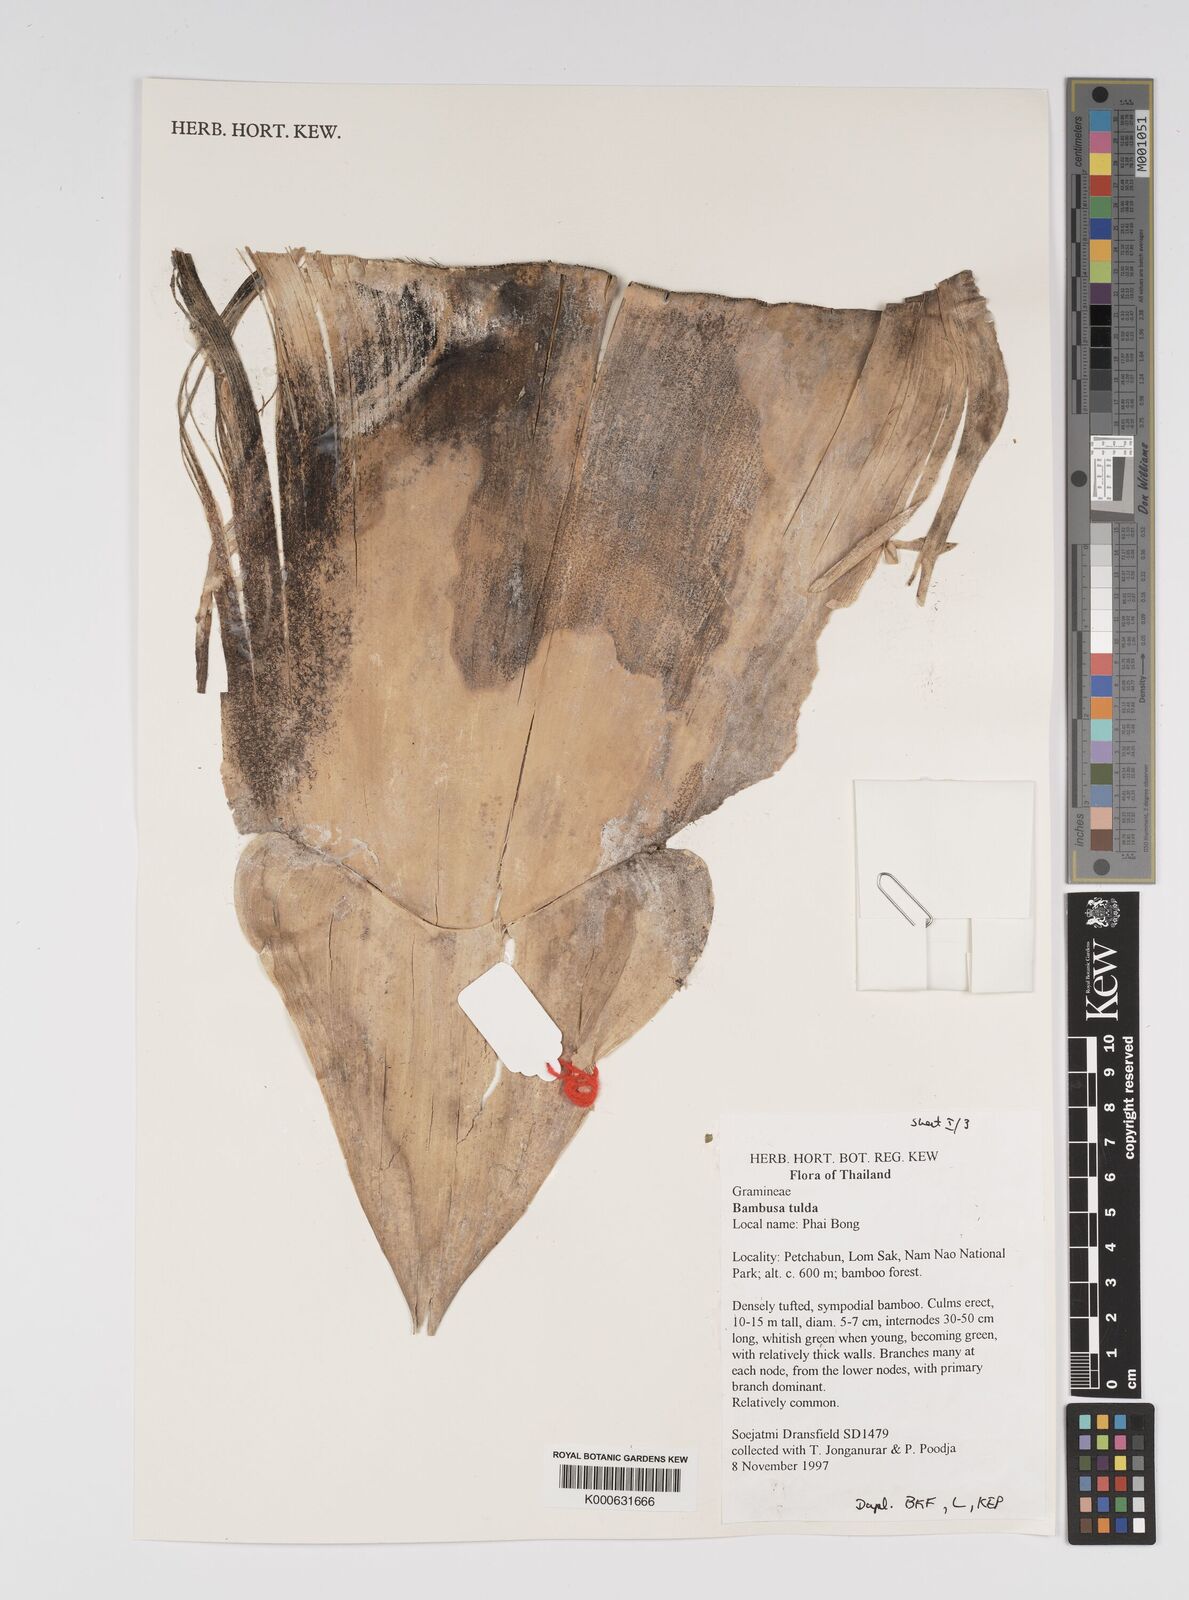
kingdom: Plantae
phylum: Tracheophyta
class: Liliopsida
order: Poales
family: Poaceae
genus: Bambusa
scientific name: Bambusa
